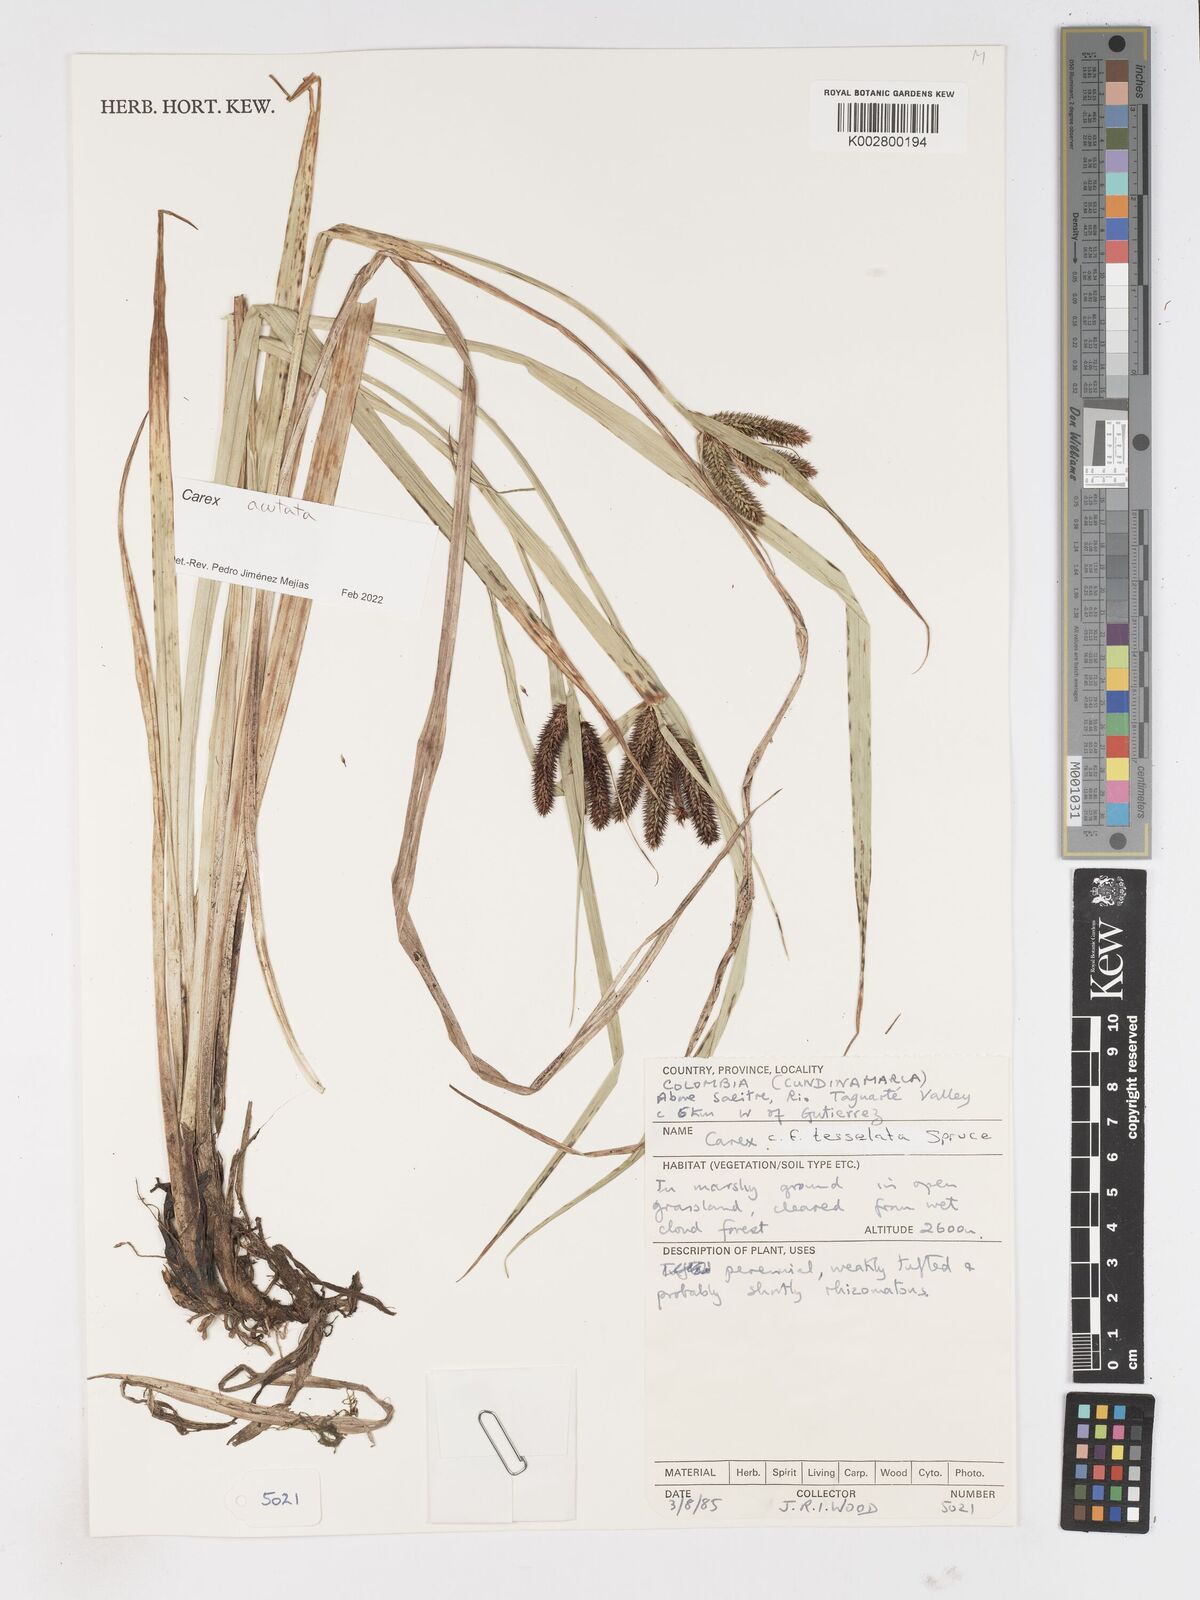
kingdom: Plantae
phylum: Tracheophyta
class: Liliopsida
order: Poales
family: Cyperaceae
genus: Carex
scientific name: Carex acutata
